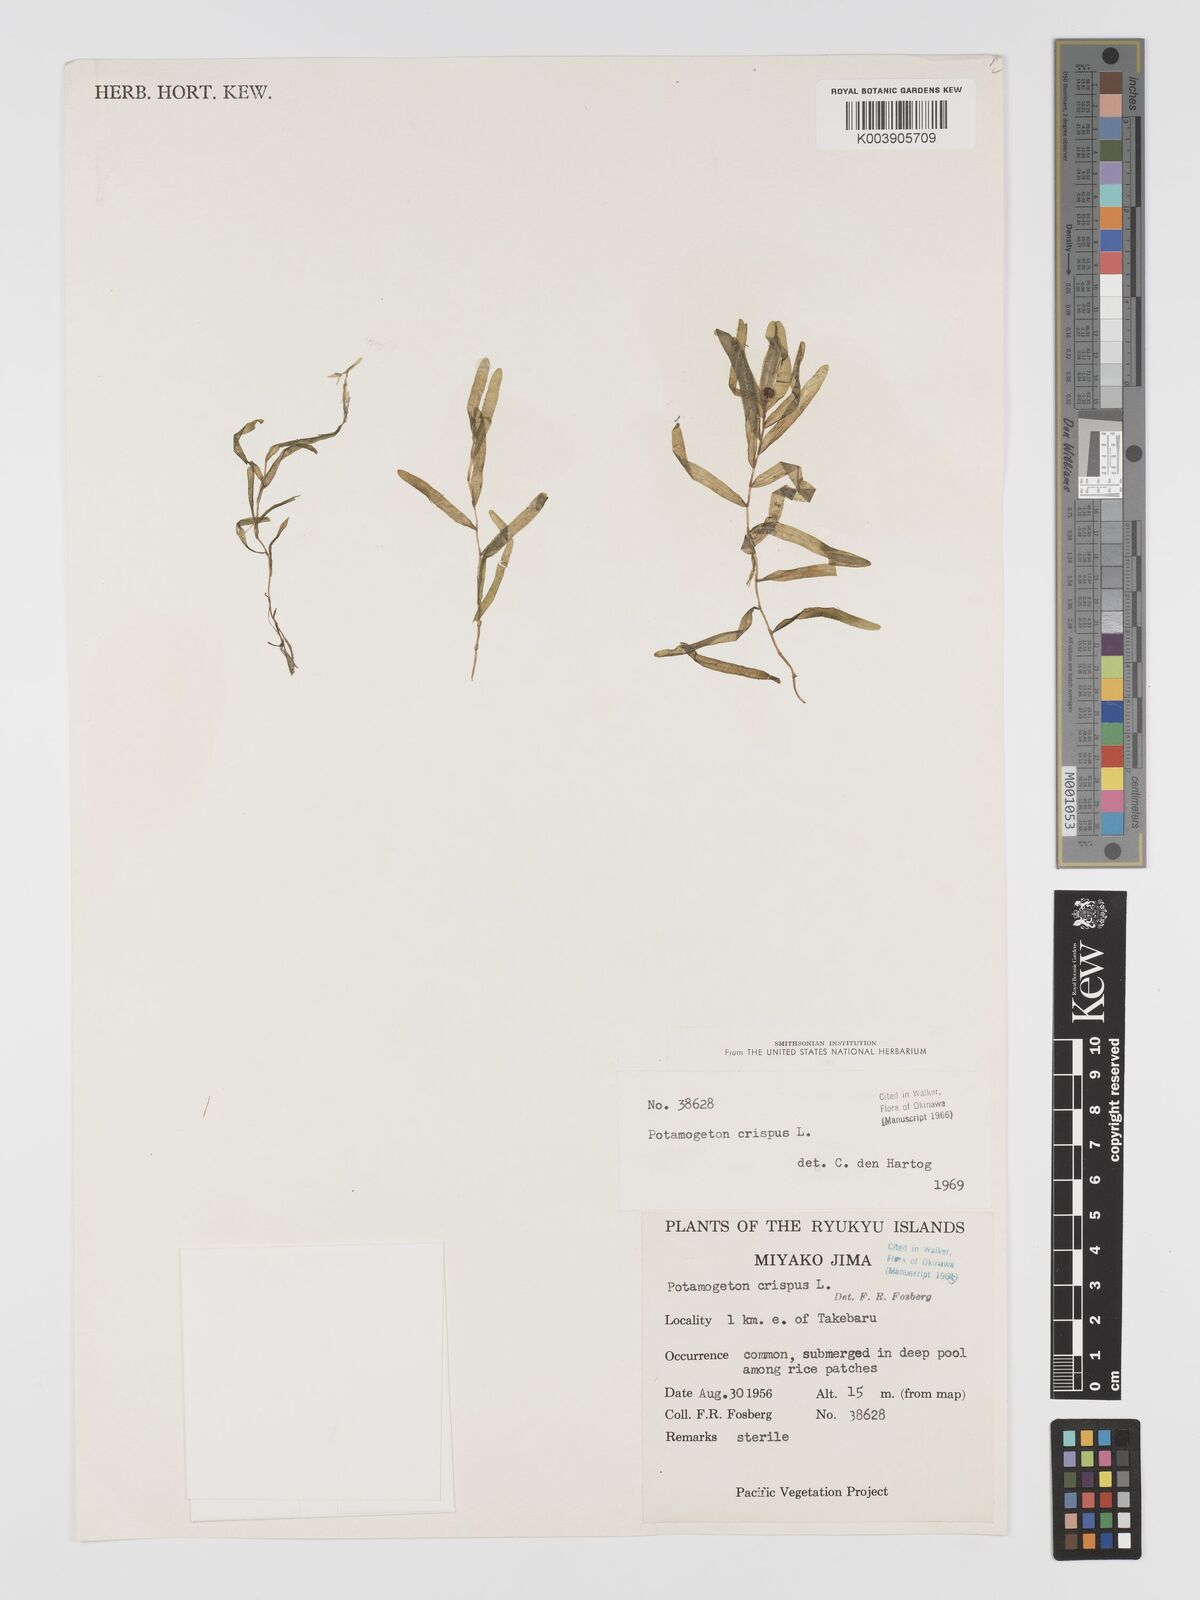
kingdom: Plantae
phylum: Tracheophyta
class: Liliopsida
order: Alismatales
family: Potamogetonaceae
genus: Potamogeton
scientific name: Potamogeton crispus
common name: Curled pondweed
